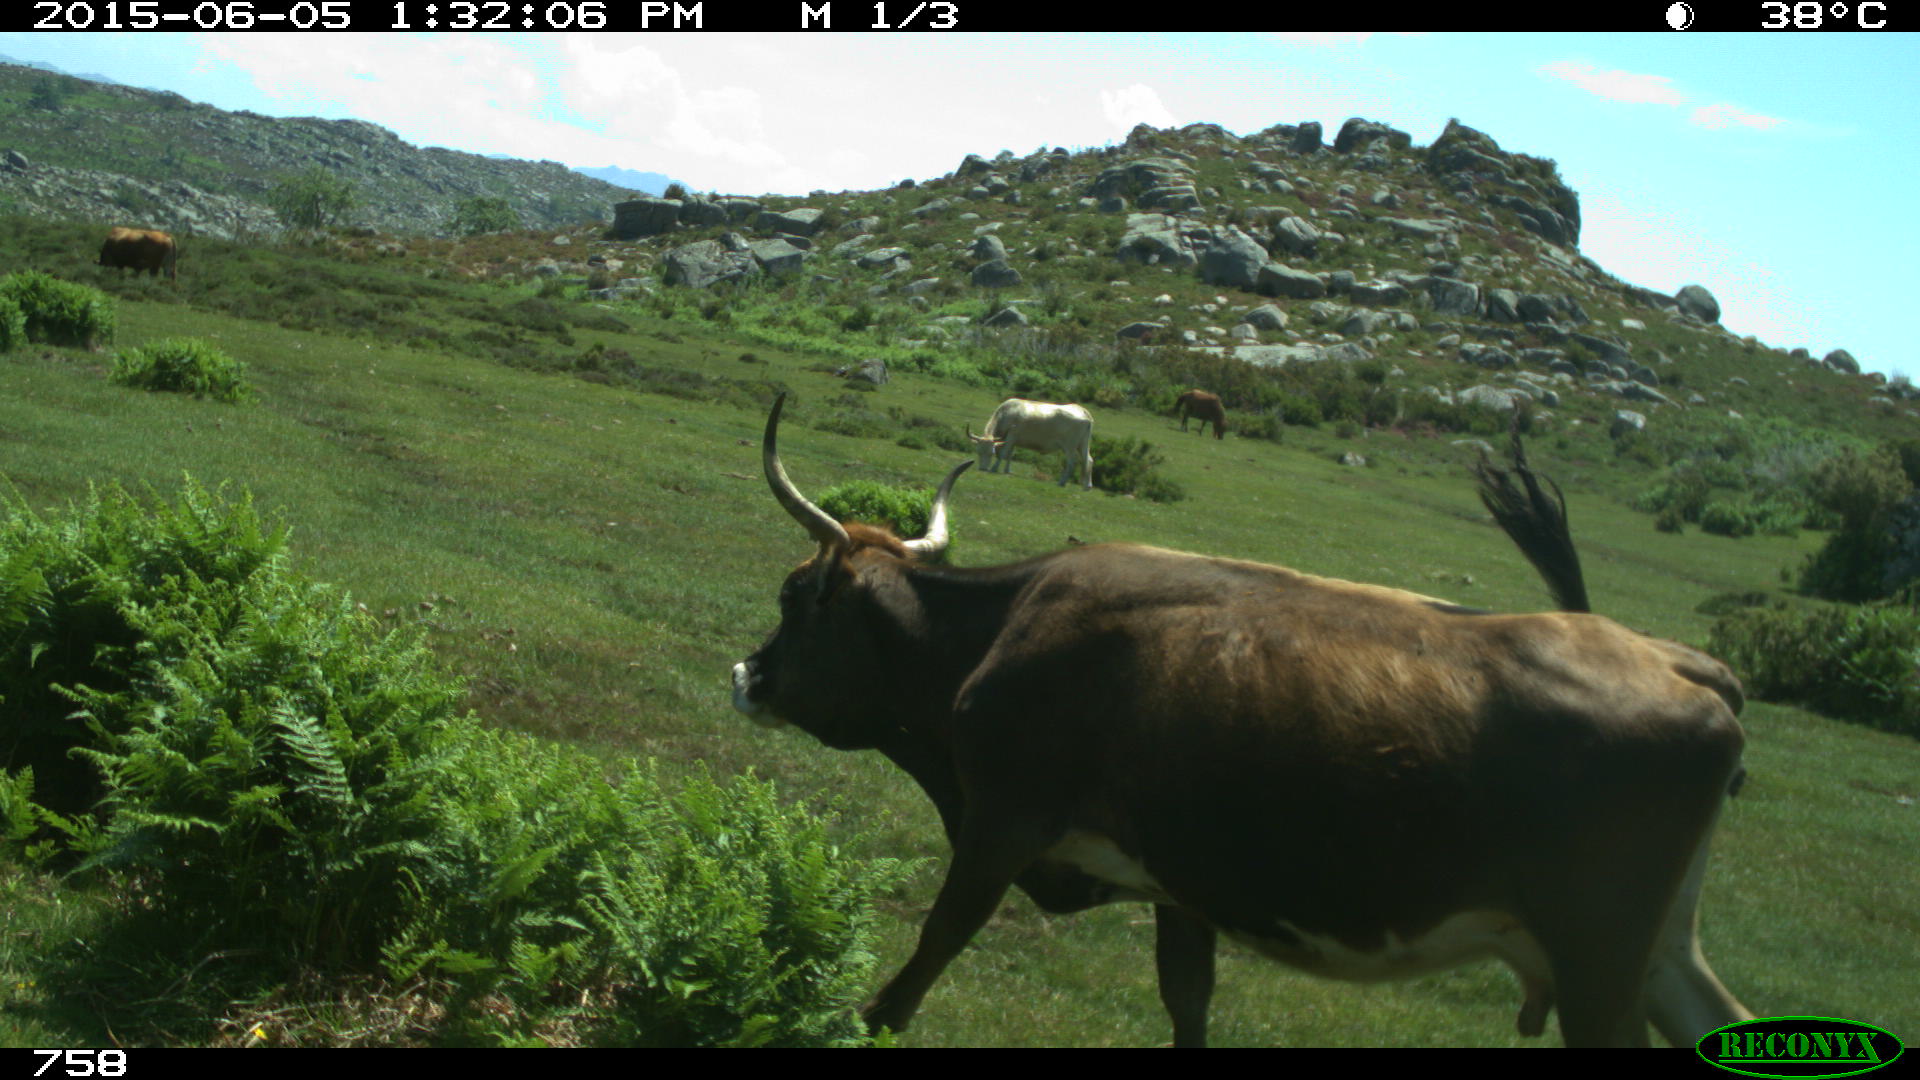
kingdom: Animalia
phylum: Chordata
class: Mammalia
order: Artiodactyla
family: Bovidae
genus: Bos
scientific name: Bos taurus
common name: Domesticated cattle
